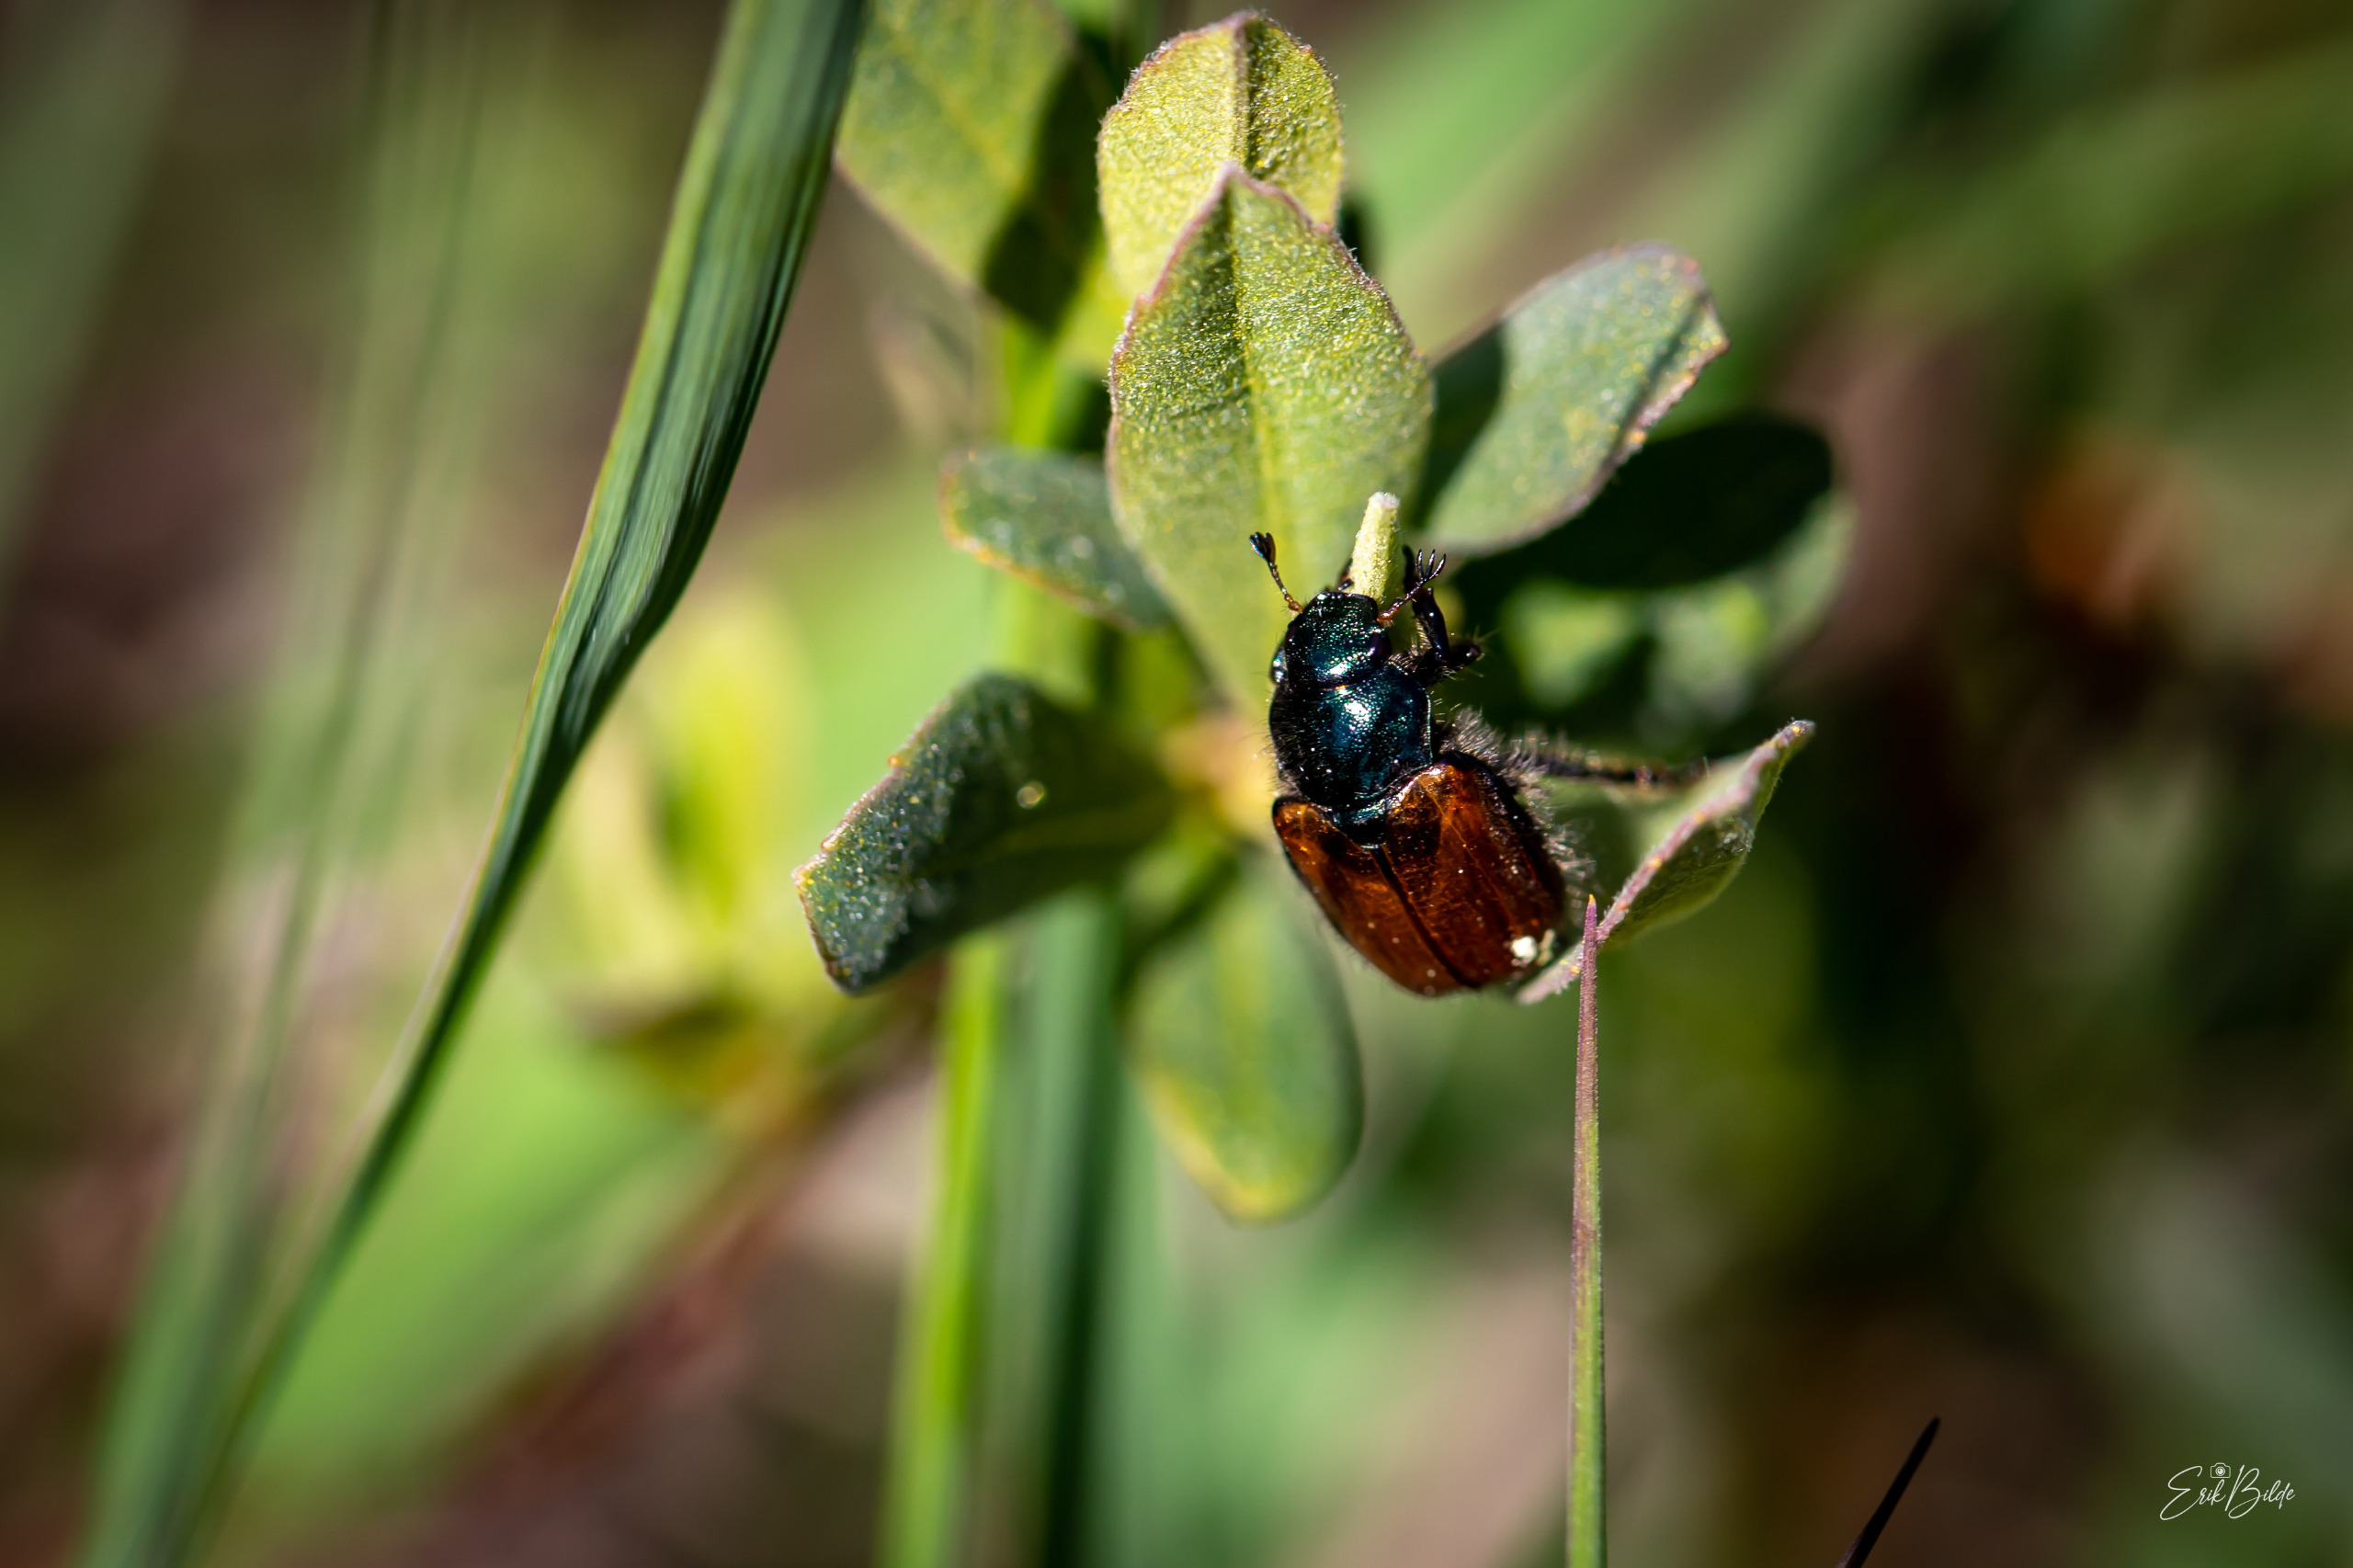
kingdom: Animalia
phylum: Arthropoda
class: Insecta
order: Coleoptera
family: Scarabaeidae
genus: Phyllopertha
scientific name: Phyllopertha horticola
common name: Gåsebille
